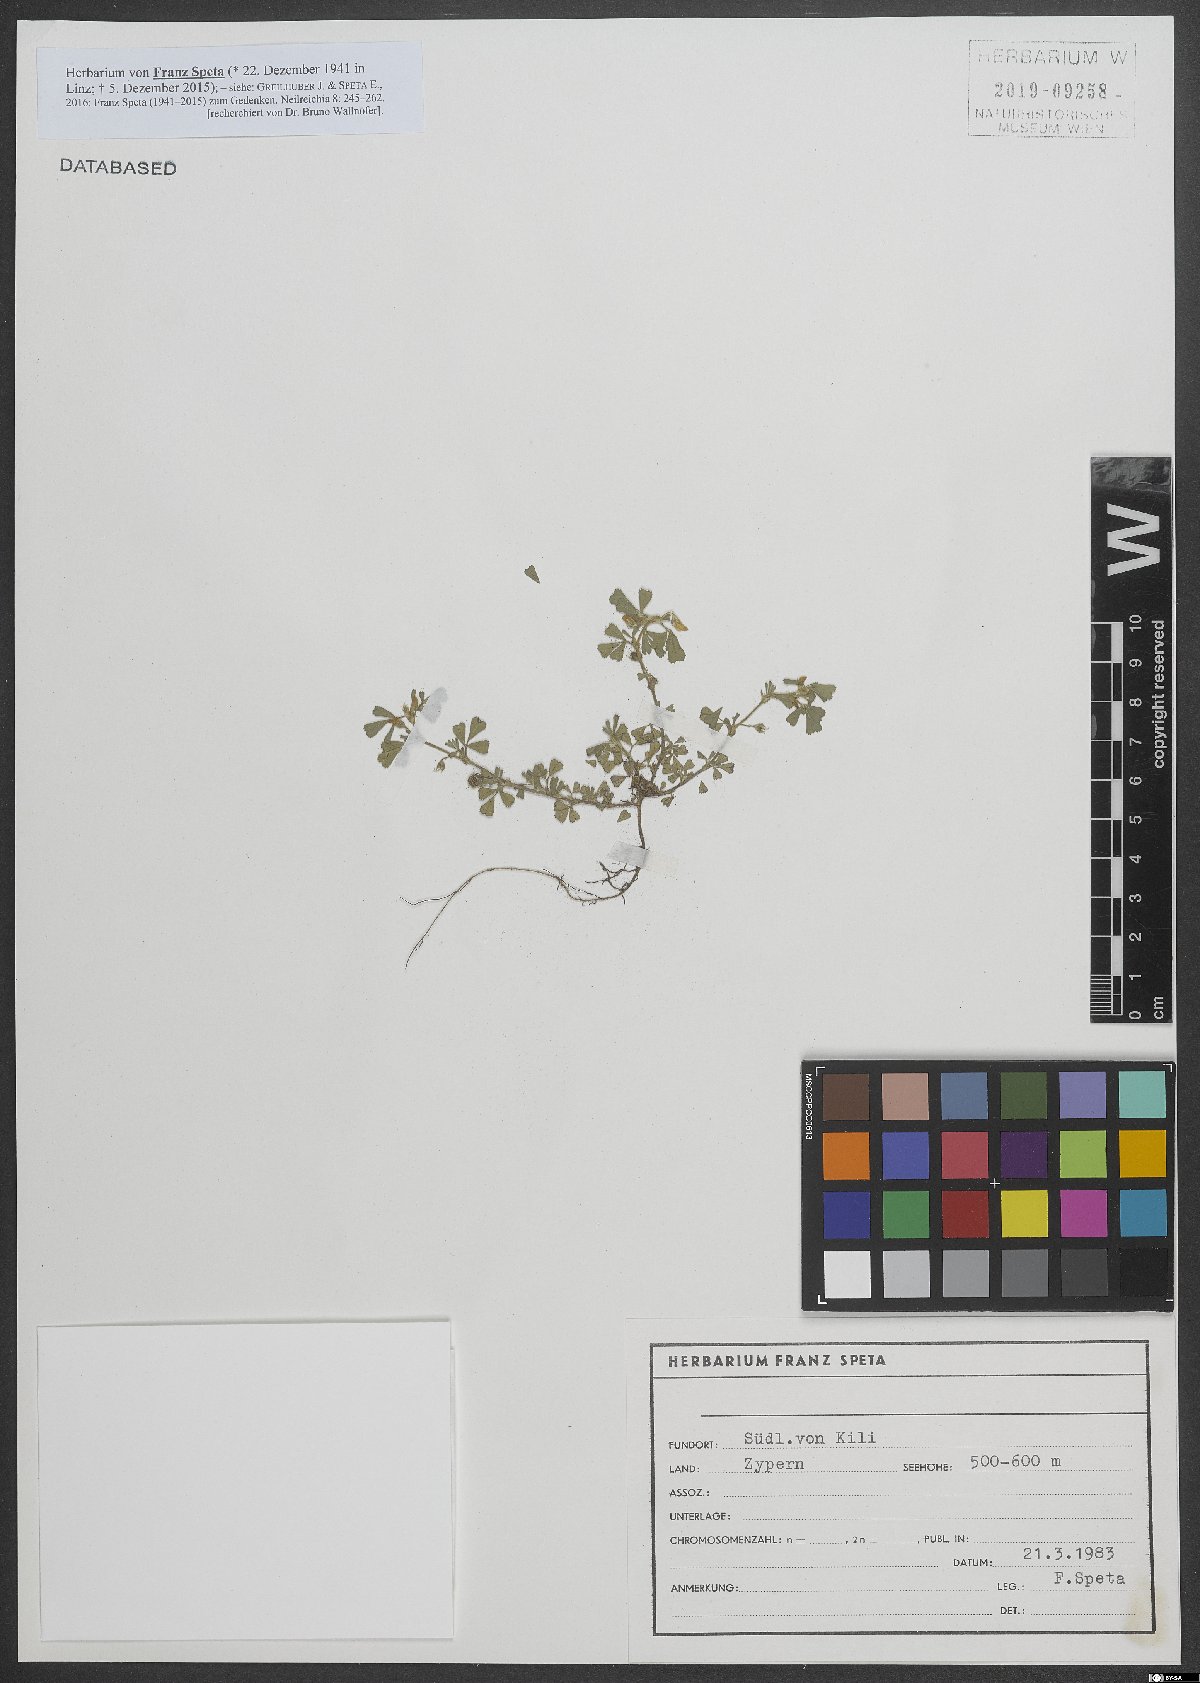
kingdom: Plantae
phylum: Tracheophyta
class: Magnoliopsida
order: Fabales
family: Fabaceae
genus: Medicago
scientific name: Medicago
